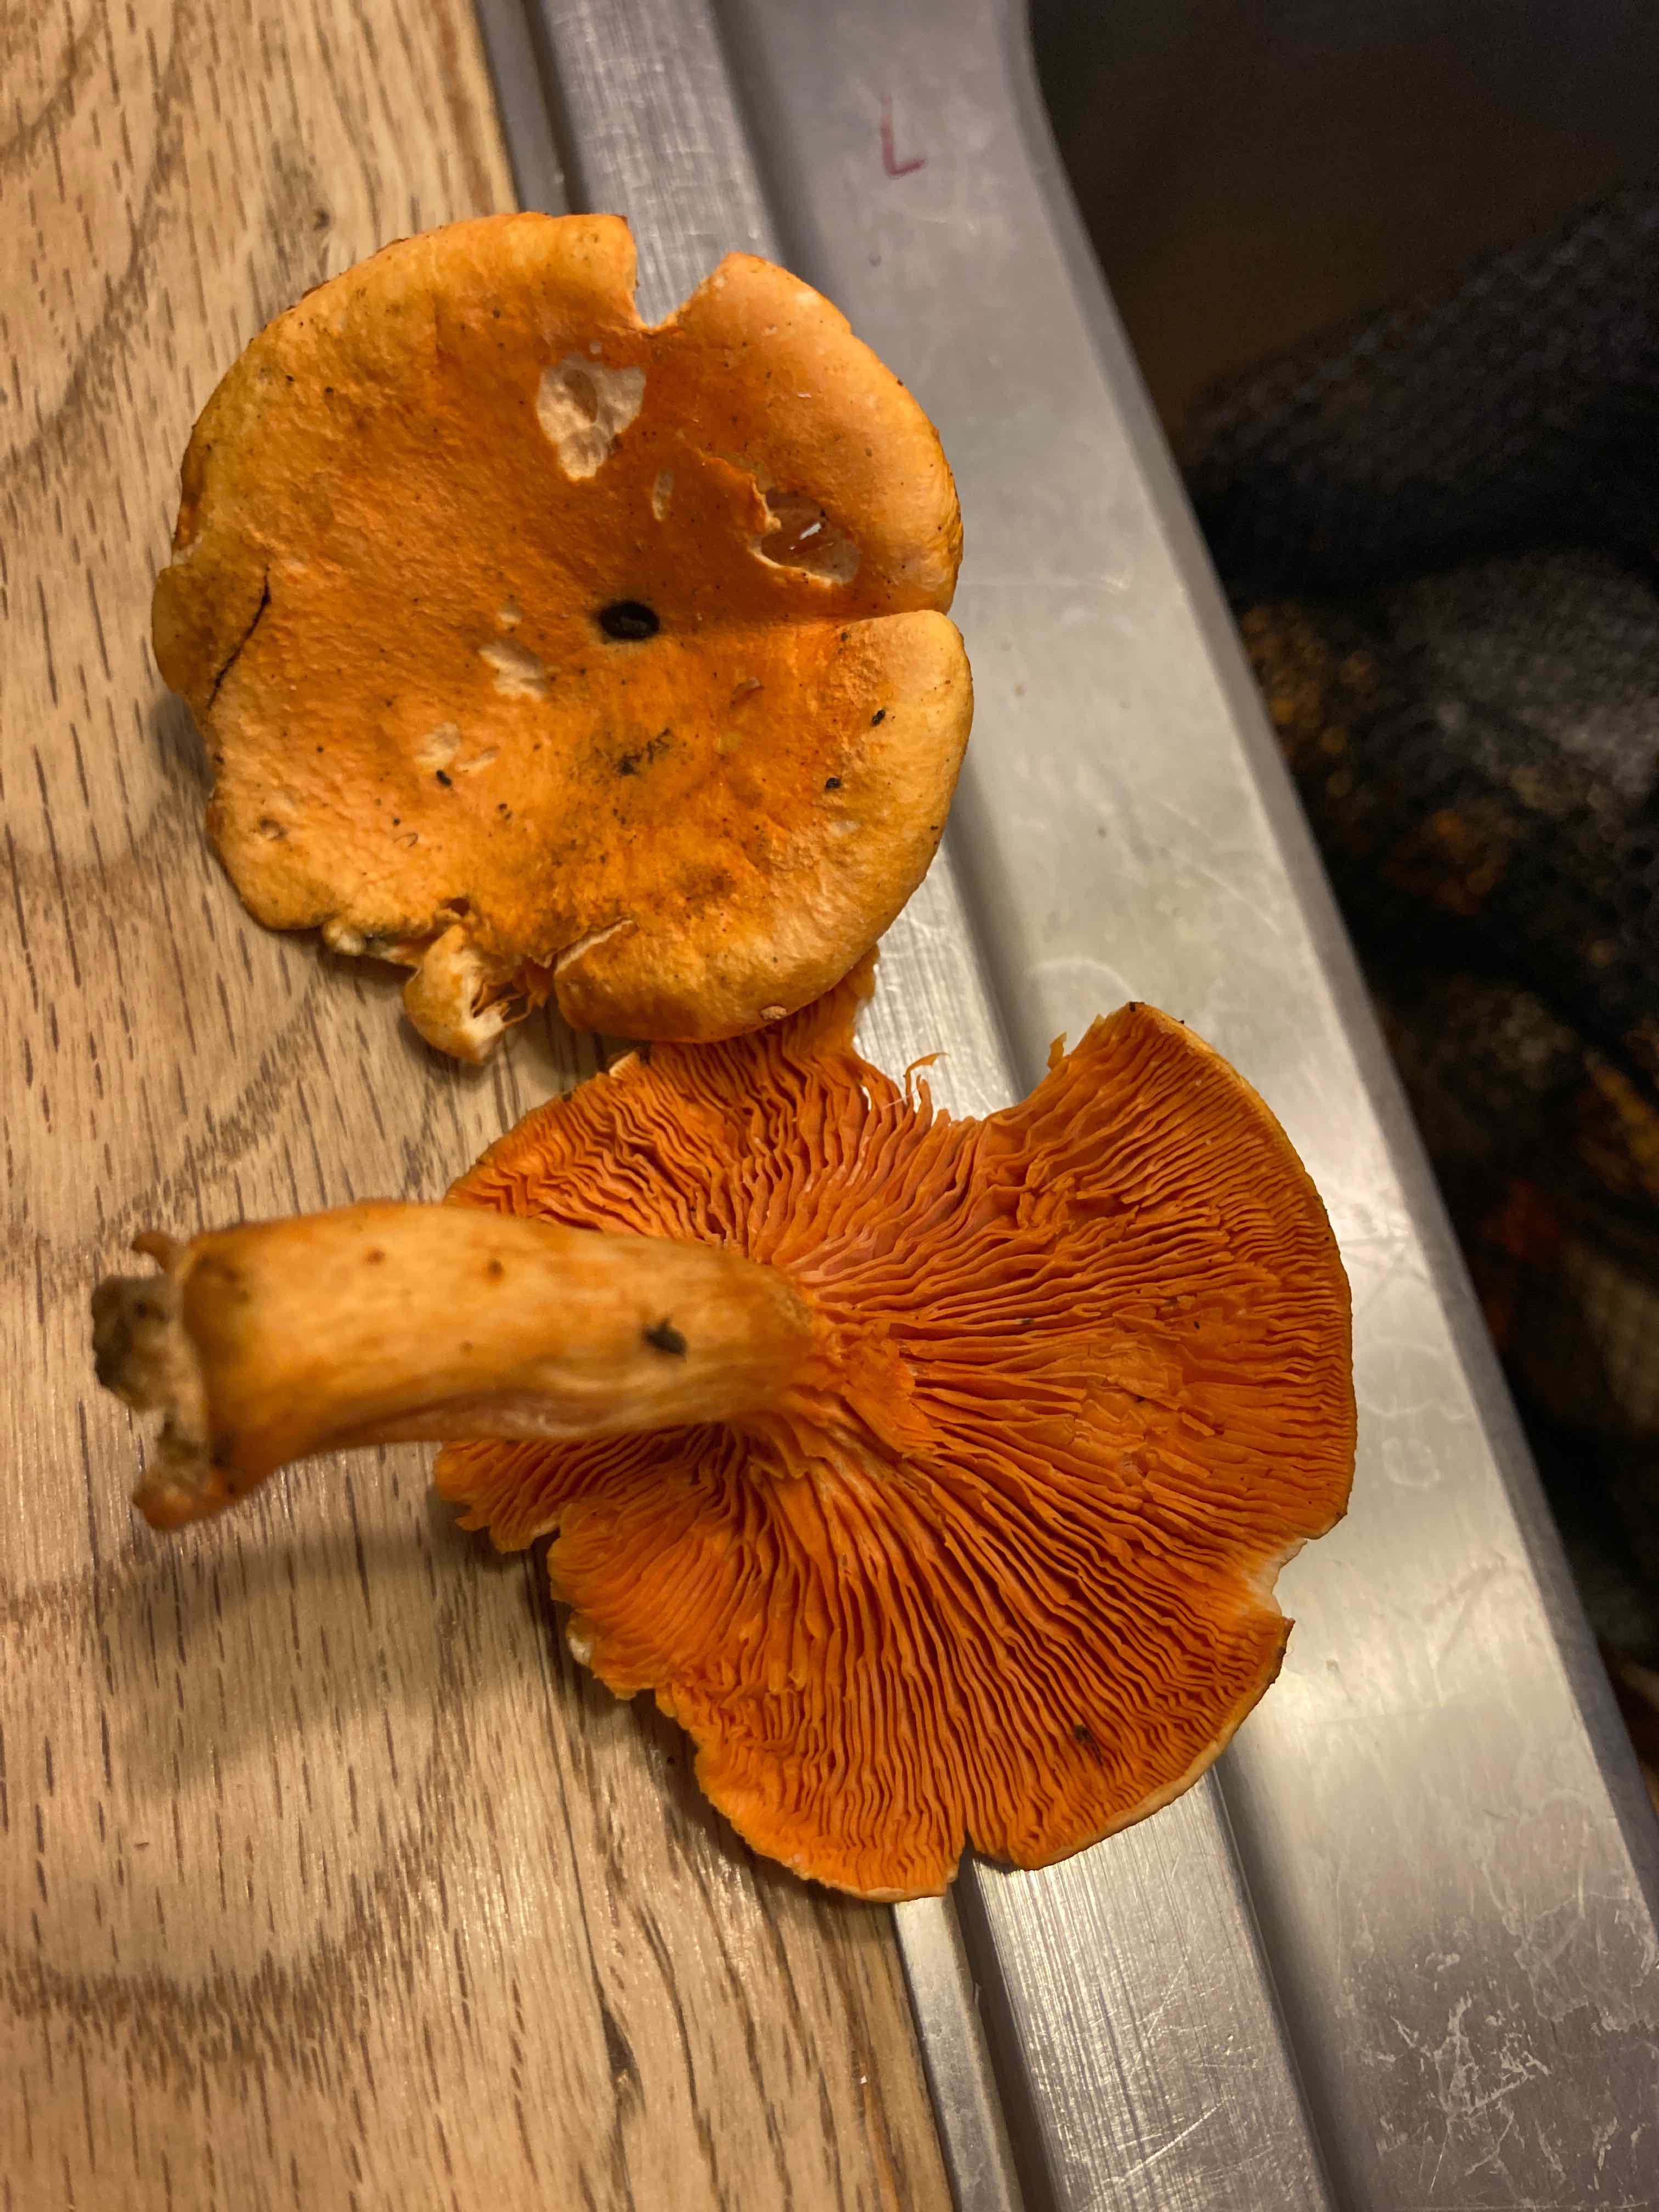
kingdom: Fungi
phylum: Basidiomycota
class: Agaricomycetes
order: Boletales
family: Hygrophoropsidaceae
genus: Hygrophoropsis
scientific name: Hygrophoropsis aurantiaca
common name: almindelig orangekantarel
